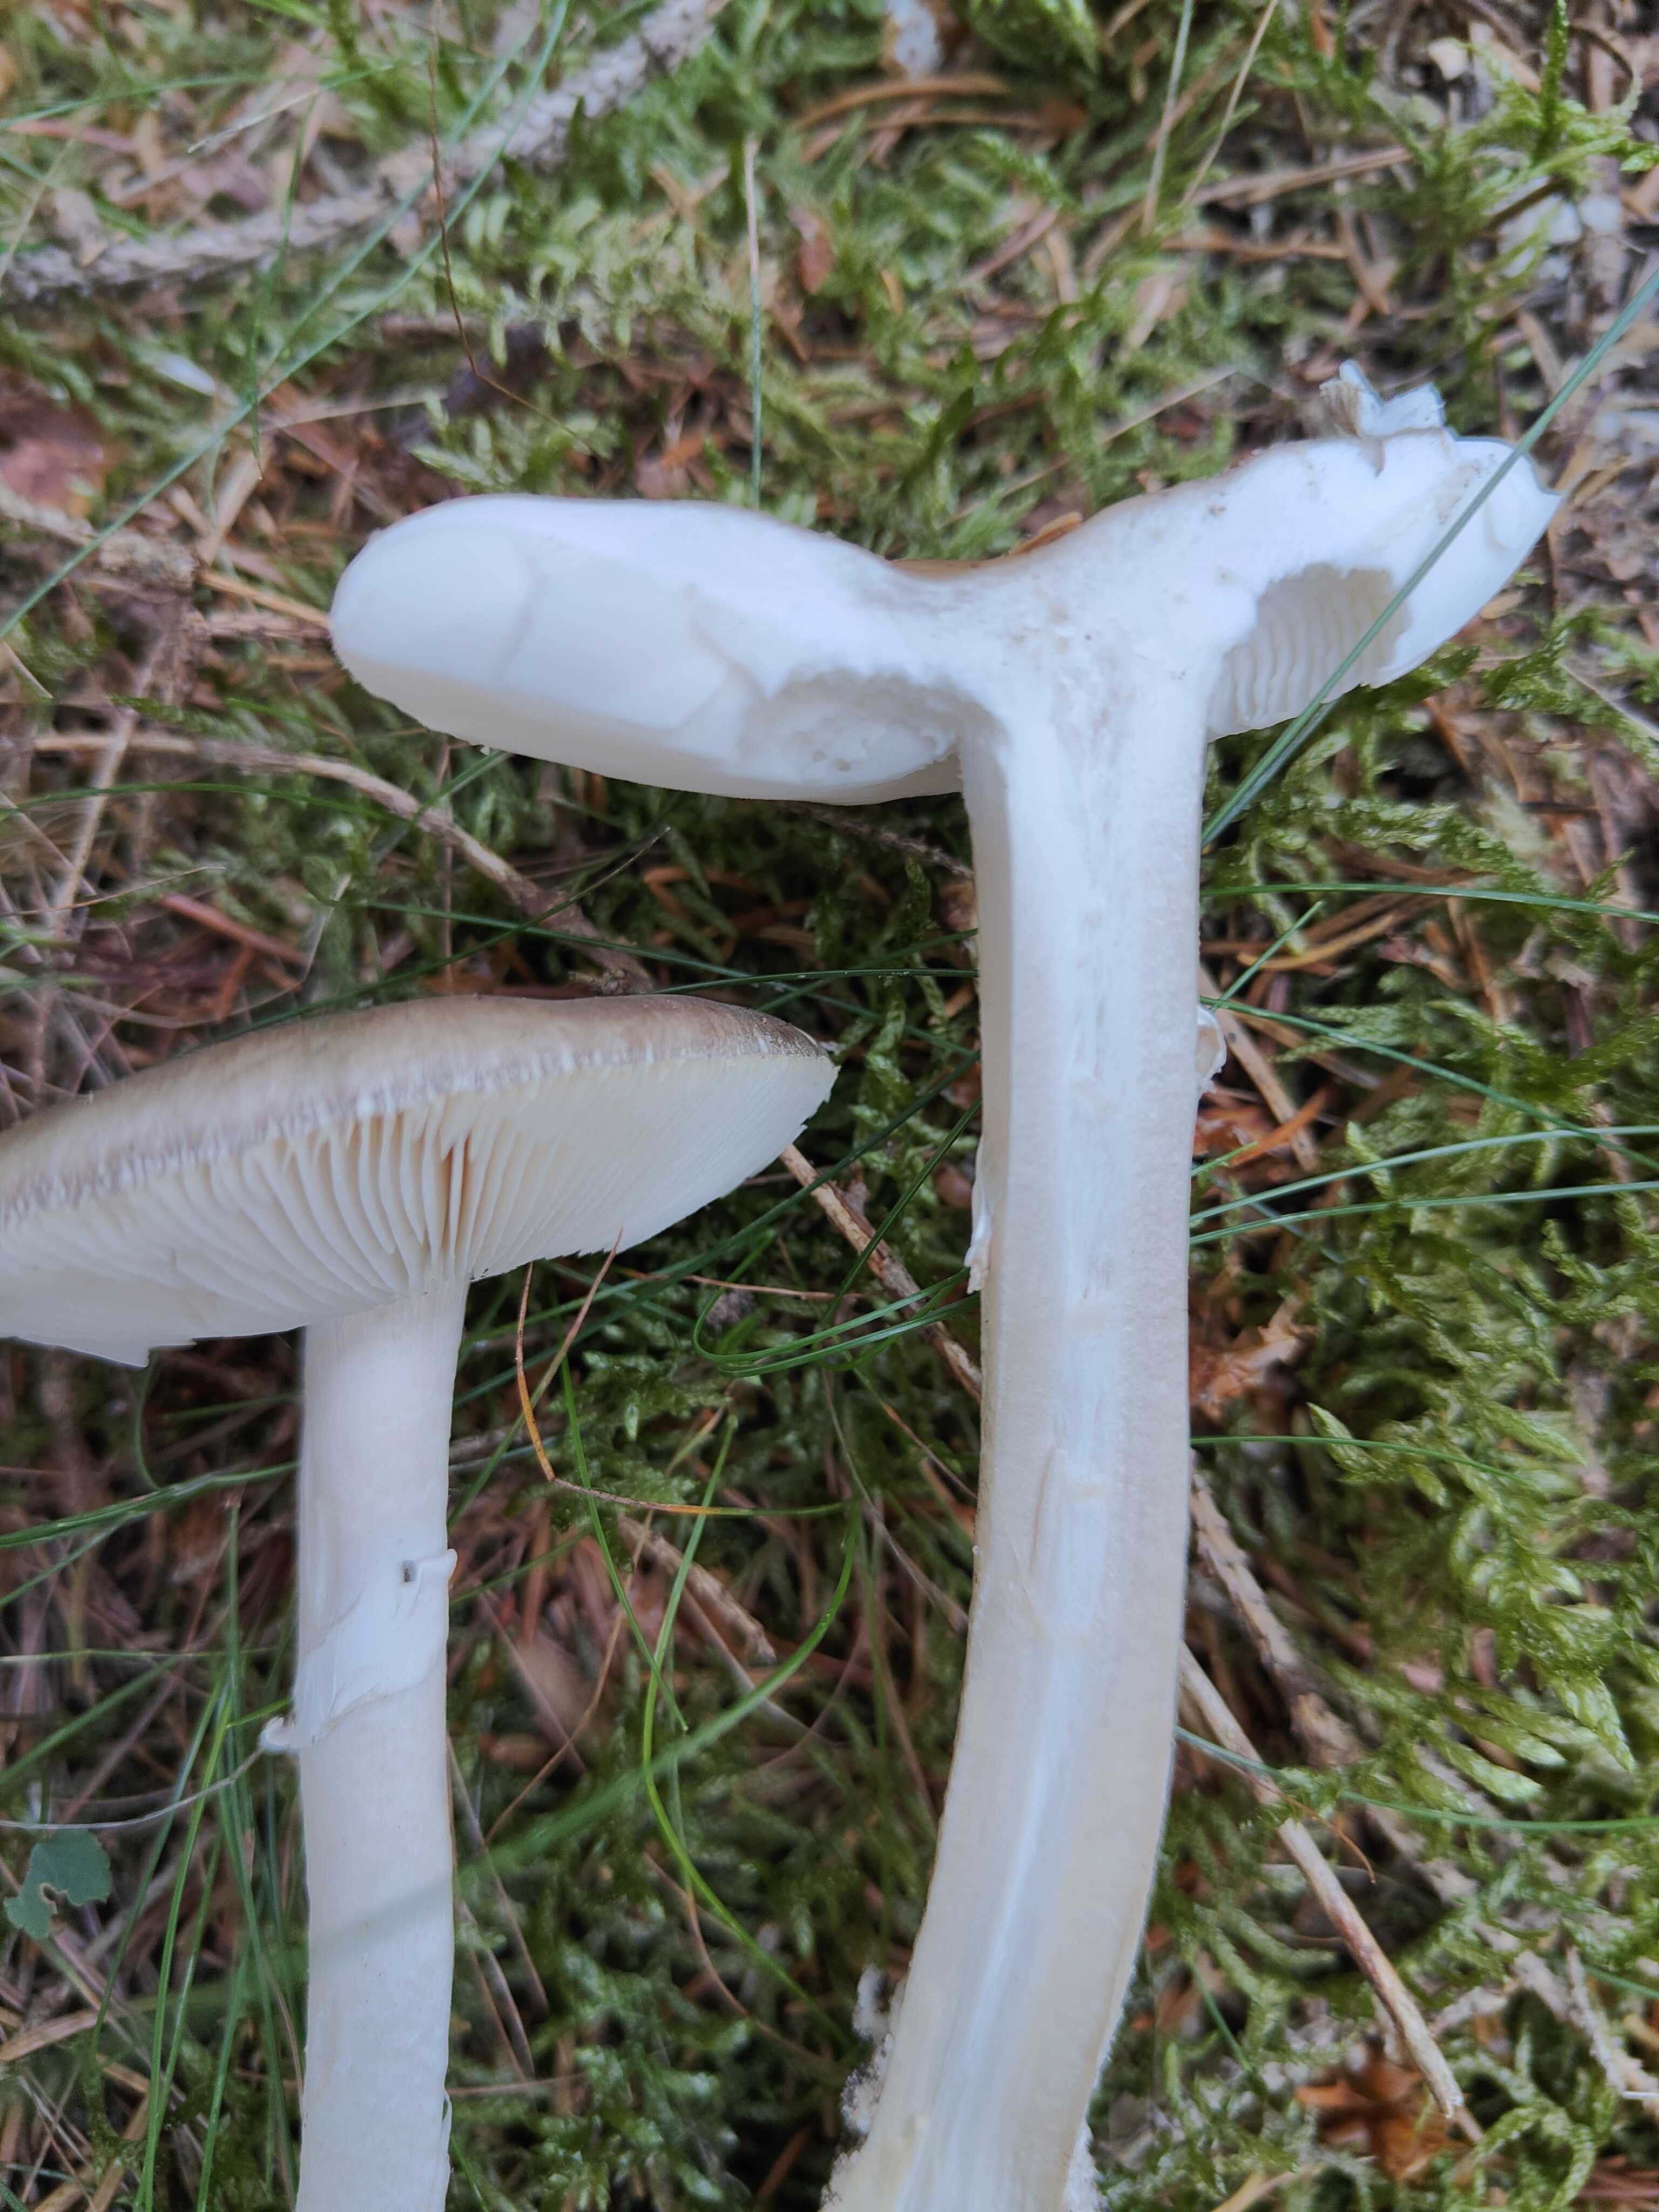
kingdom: Fungi
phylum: Basidiomycota
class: Agaricomycetes
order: Agaricales
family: Amanitaceae
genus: Amanita
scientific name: Amanita porphyria
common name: porfyr-fluesvamp
